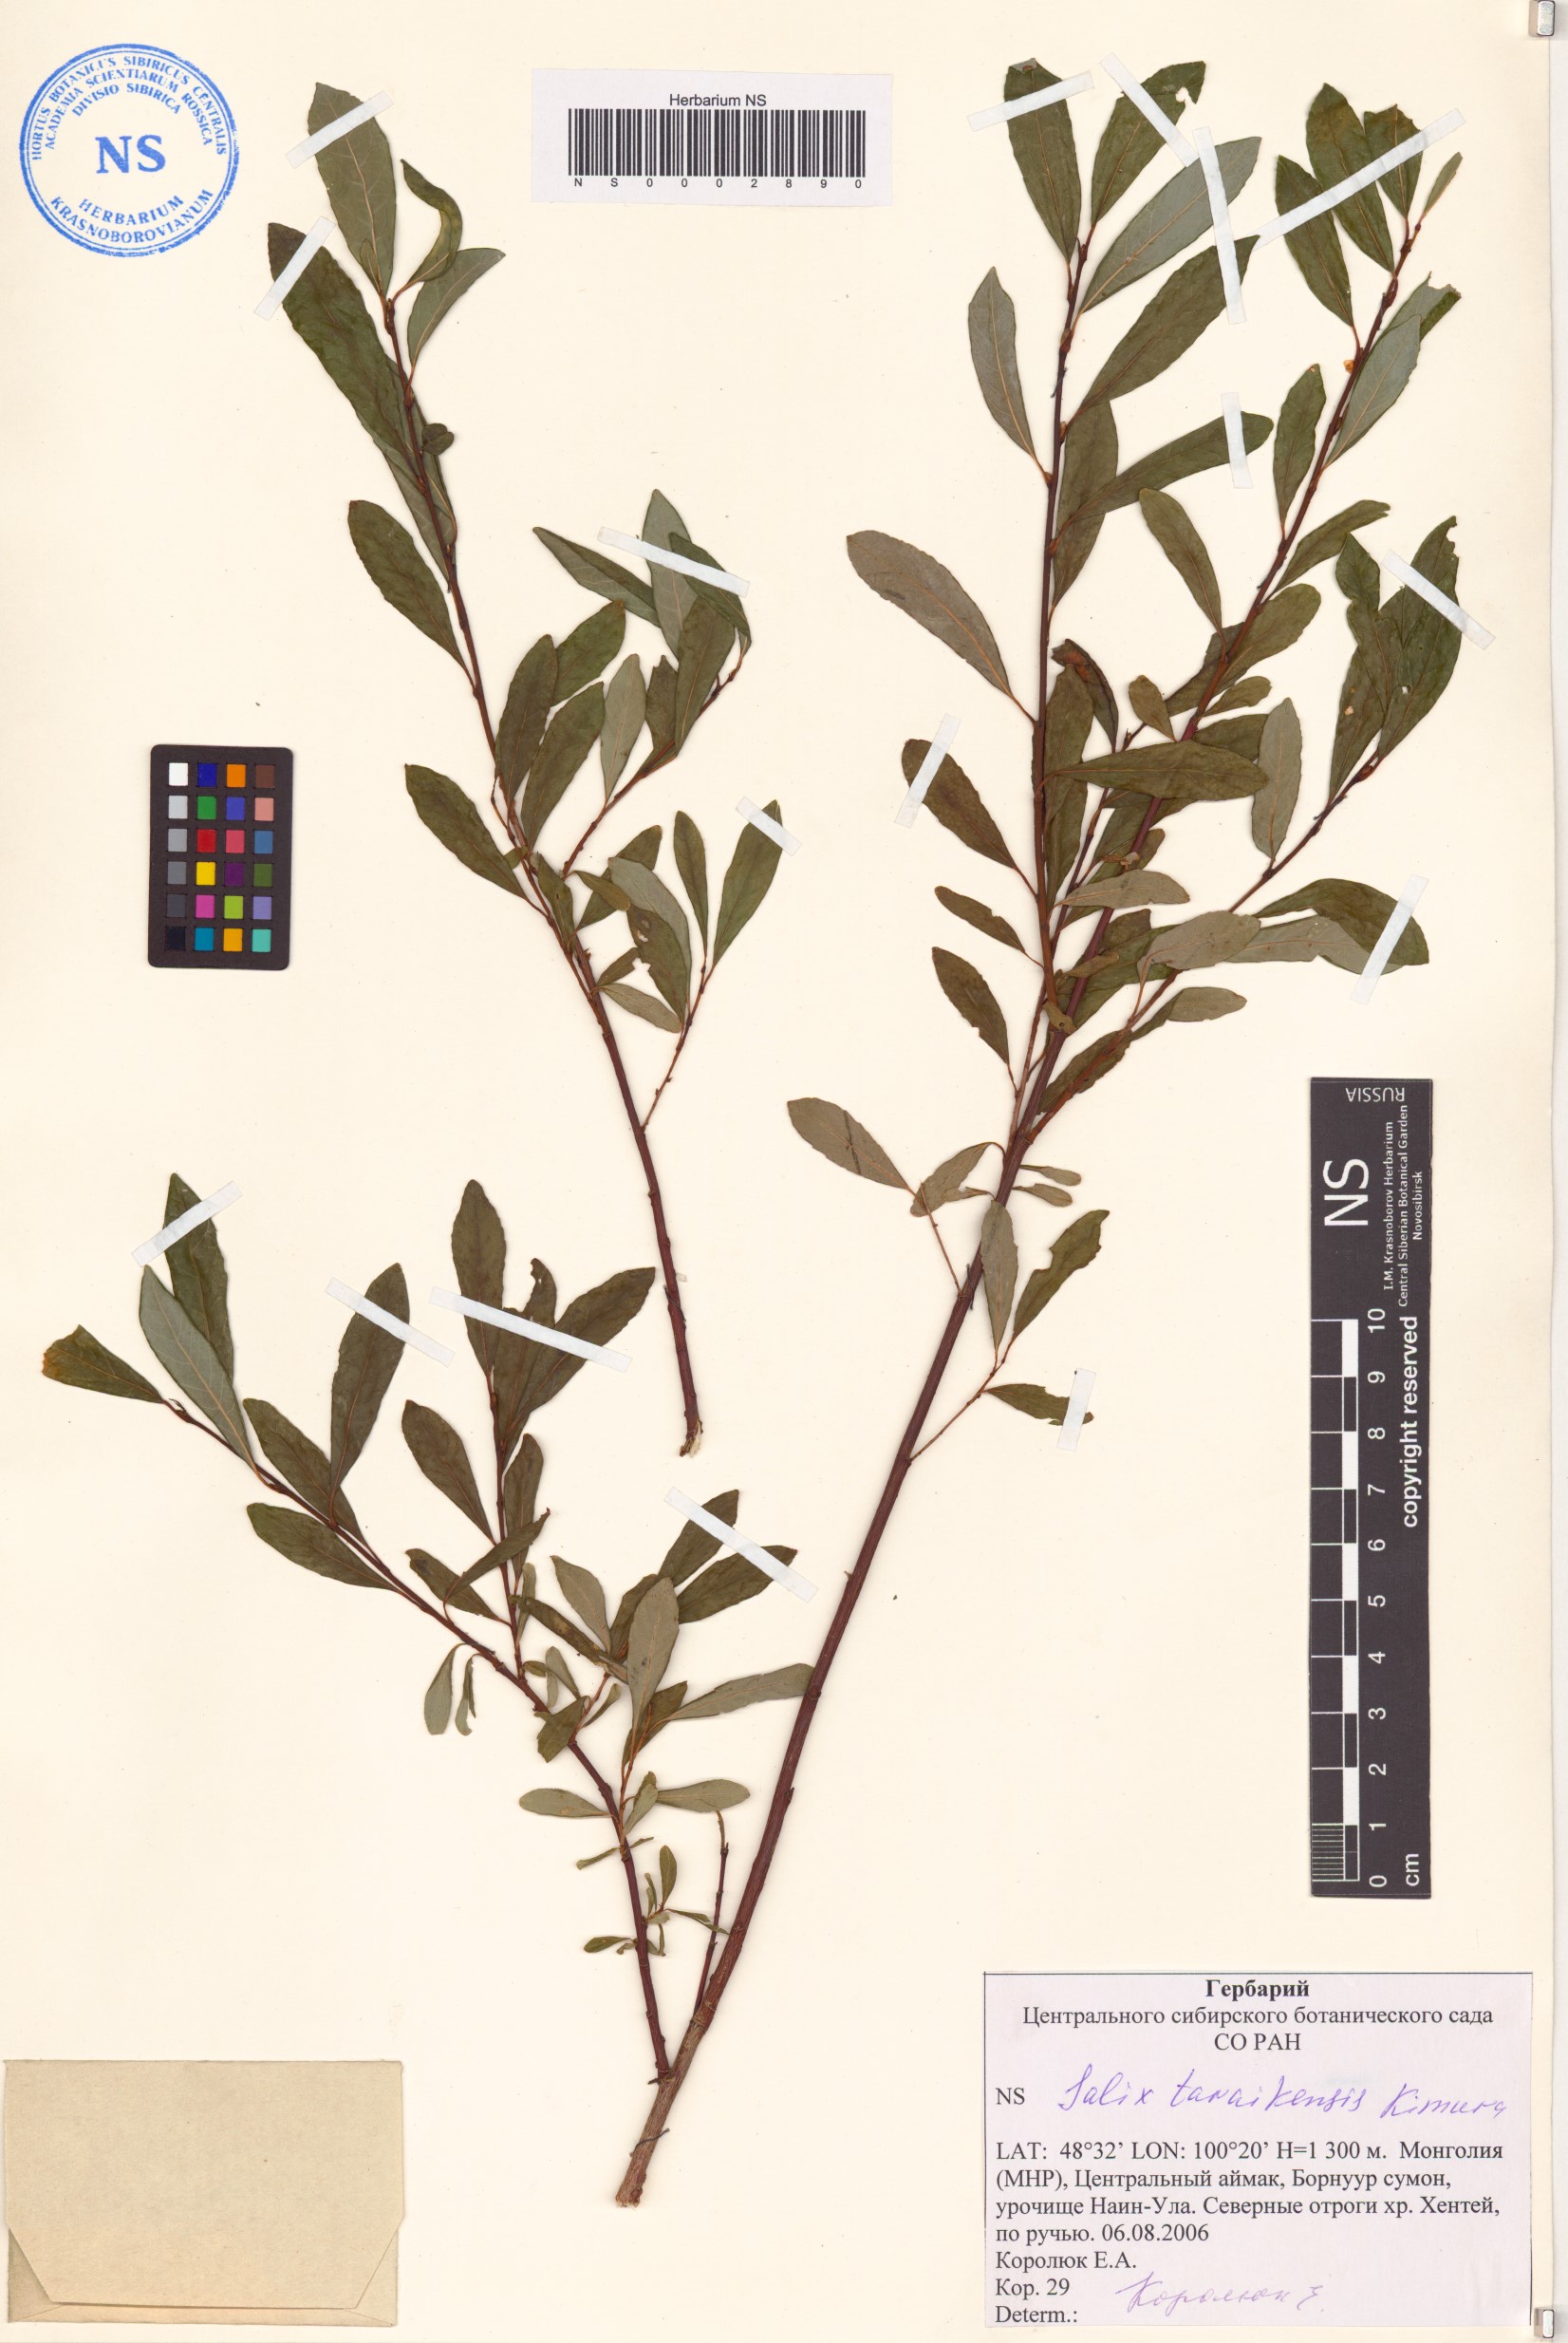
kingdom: Plantae
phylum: Tracheophyta
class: Magnoliopsida
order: Malpighiales
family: Salicaceae
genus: Salix
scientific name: Salix taraikensis
